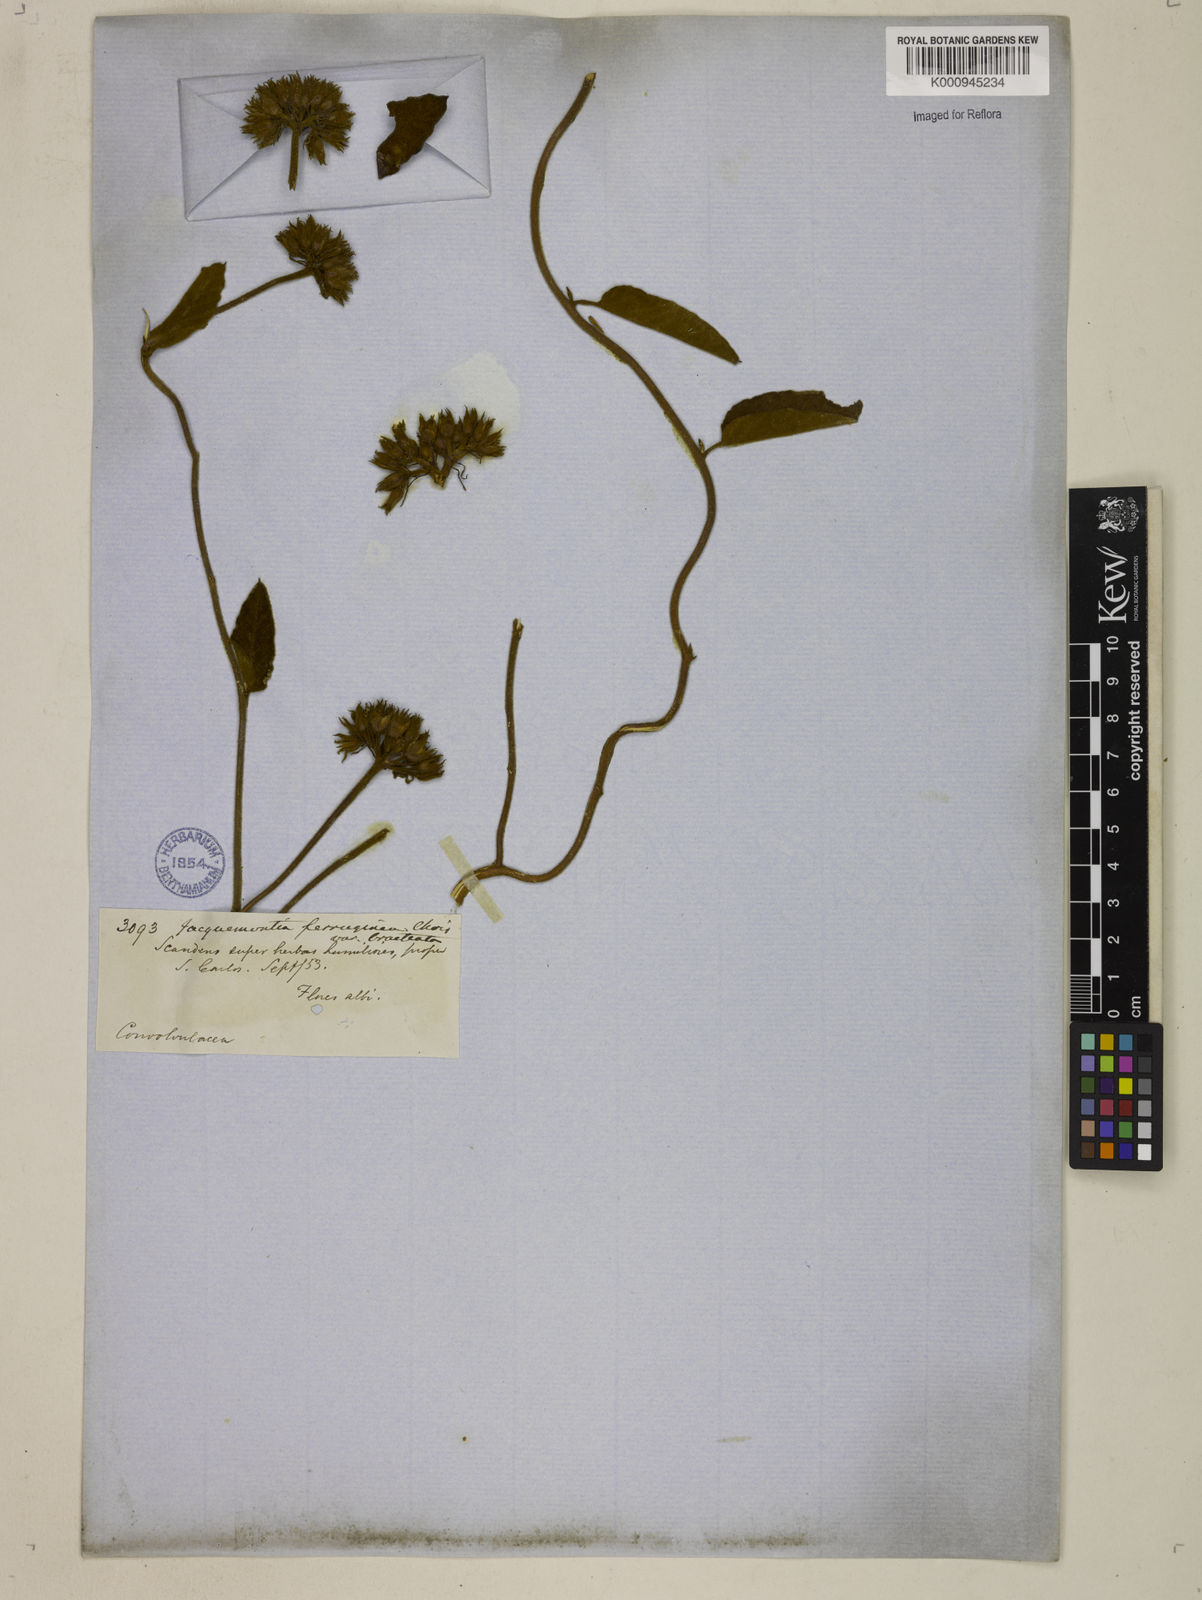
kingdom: Plantae
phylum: Tracheophyta
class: Magnoliopsida
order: Solanales
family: Convolvulaceae
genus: Jacquemontia
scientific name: Jacquemontia
